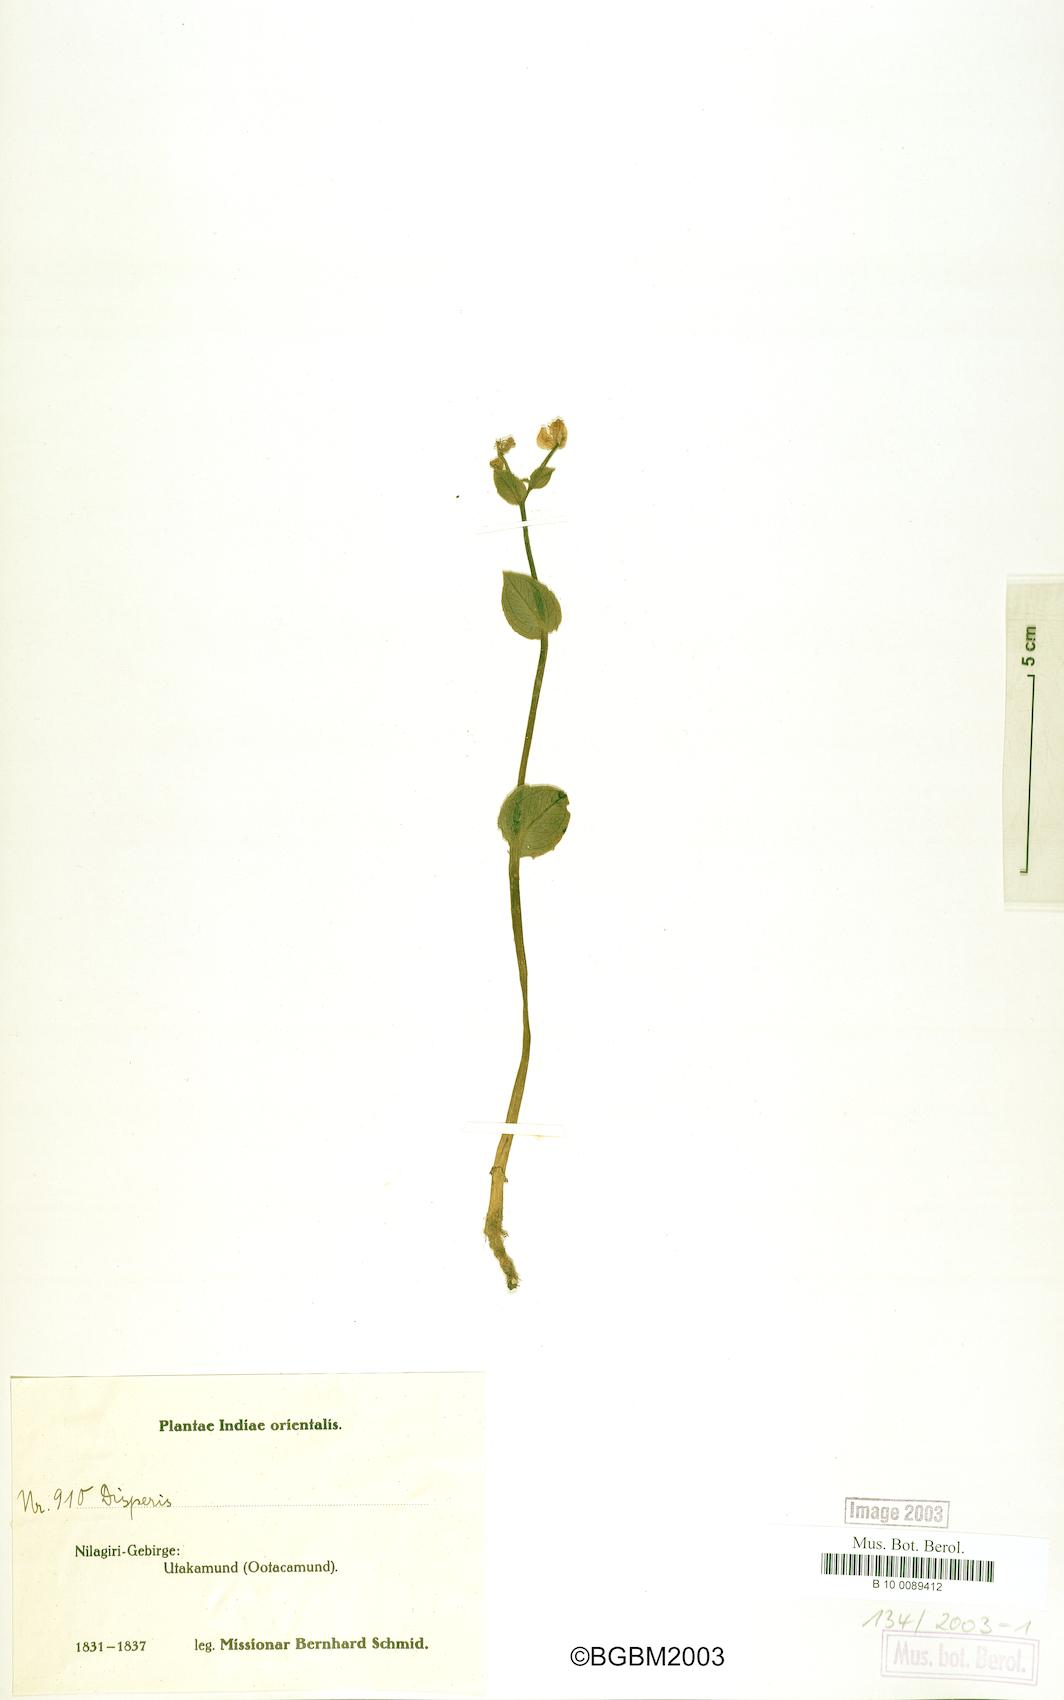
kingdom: Plantae
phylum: Tracheophyta
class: Liliopsida
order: Asparagales
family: Orchidaceae
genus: Disperis
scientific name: Disperis
